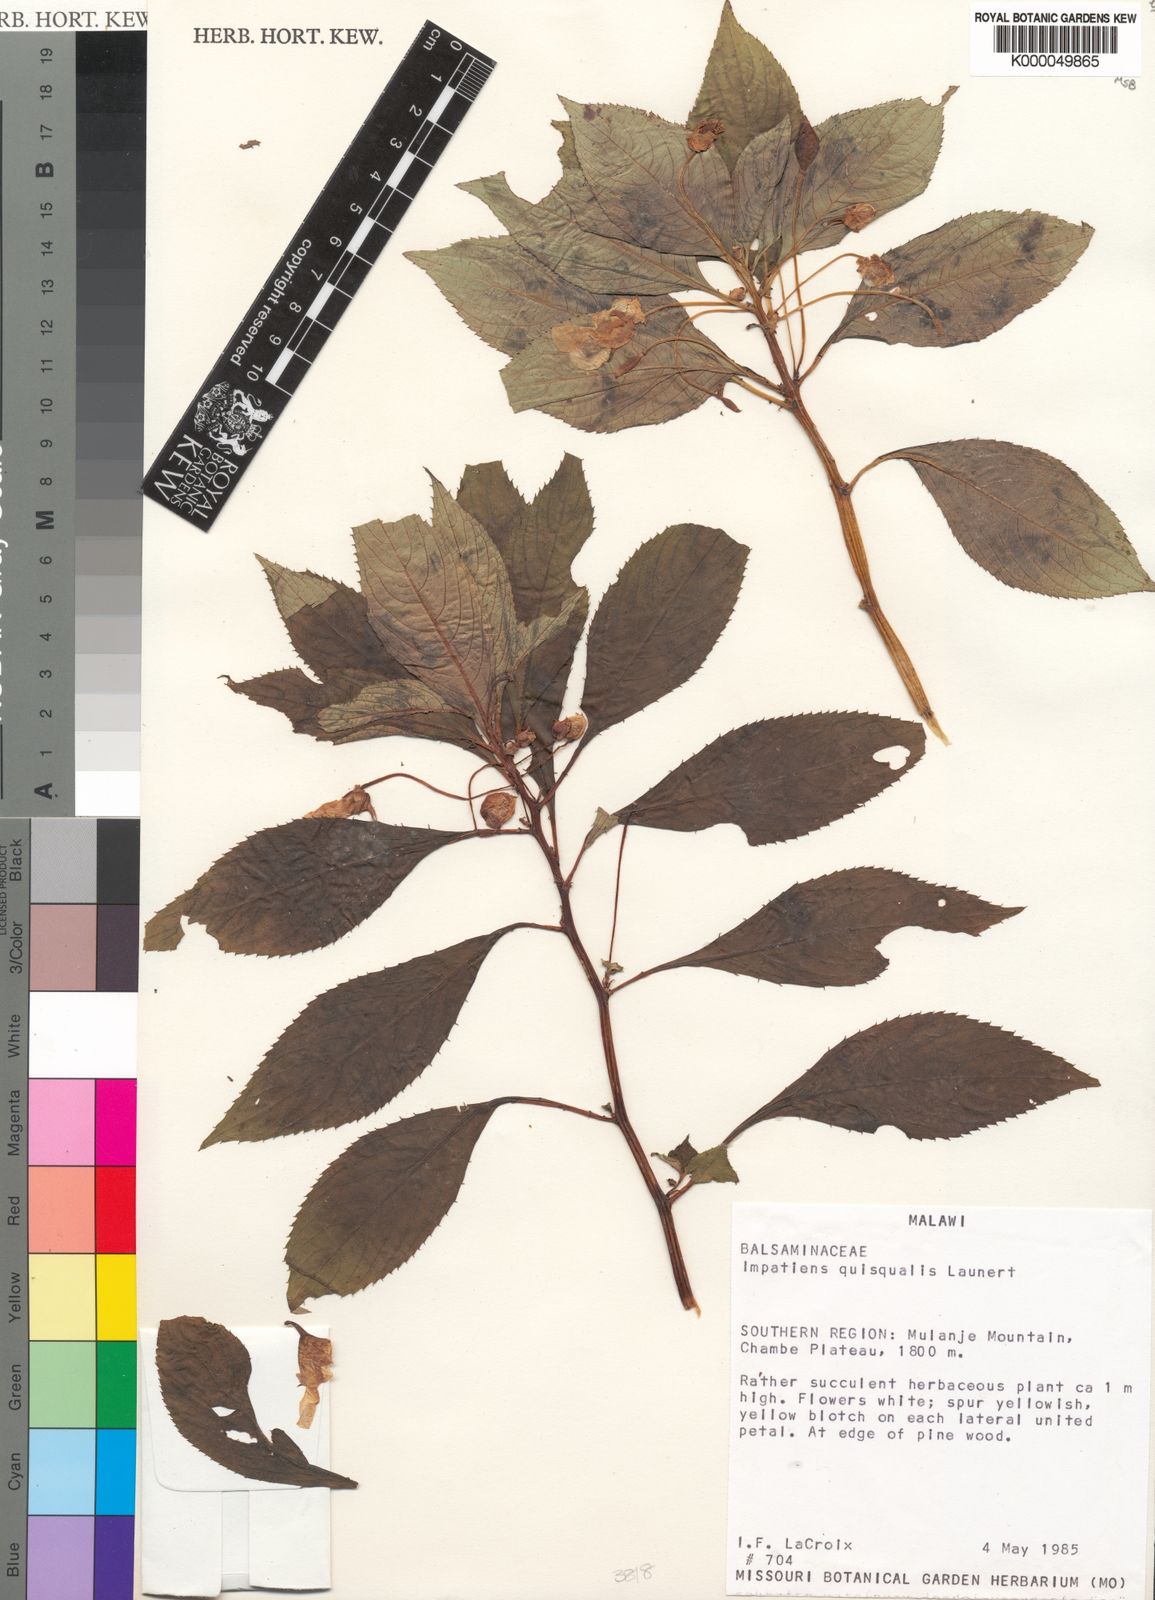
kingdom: Plantae
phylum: Tracheophyta
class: Magnoliopsida
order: Ericales
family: Balsaminaceae
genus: Impatiens
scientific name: Impatiens quisqualis
